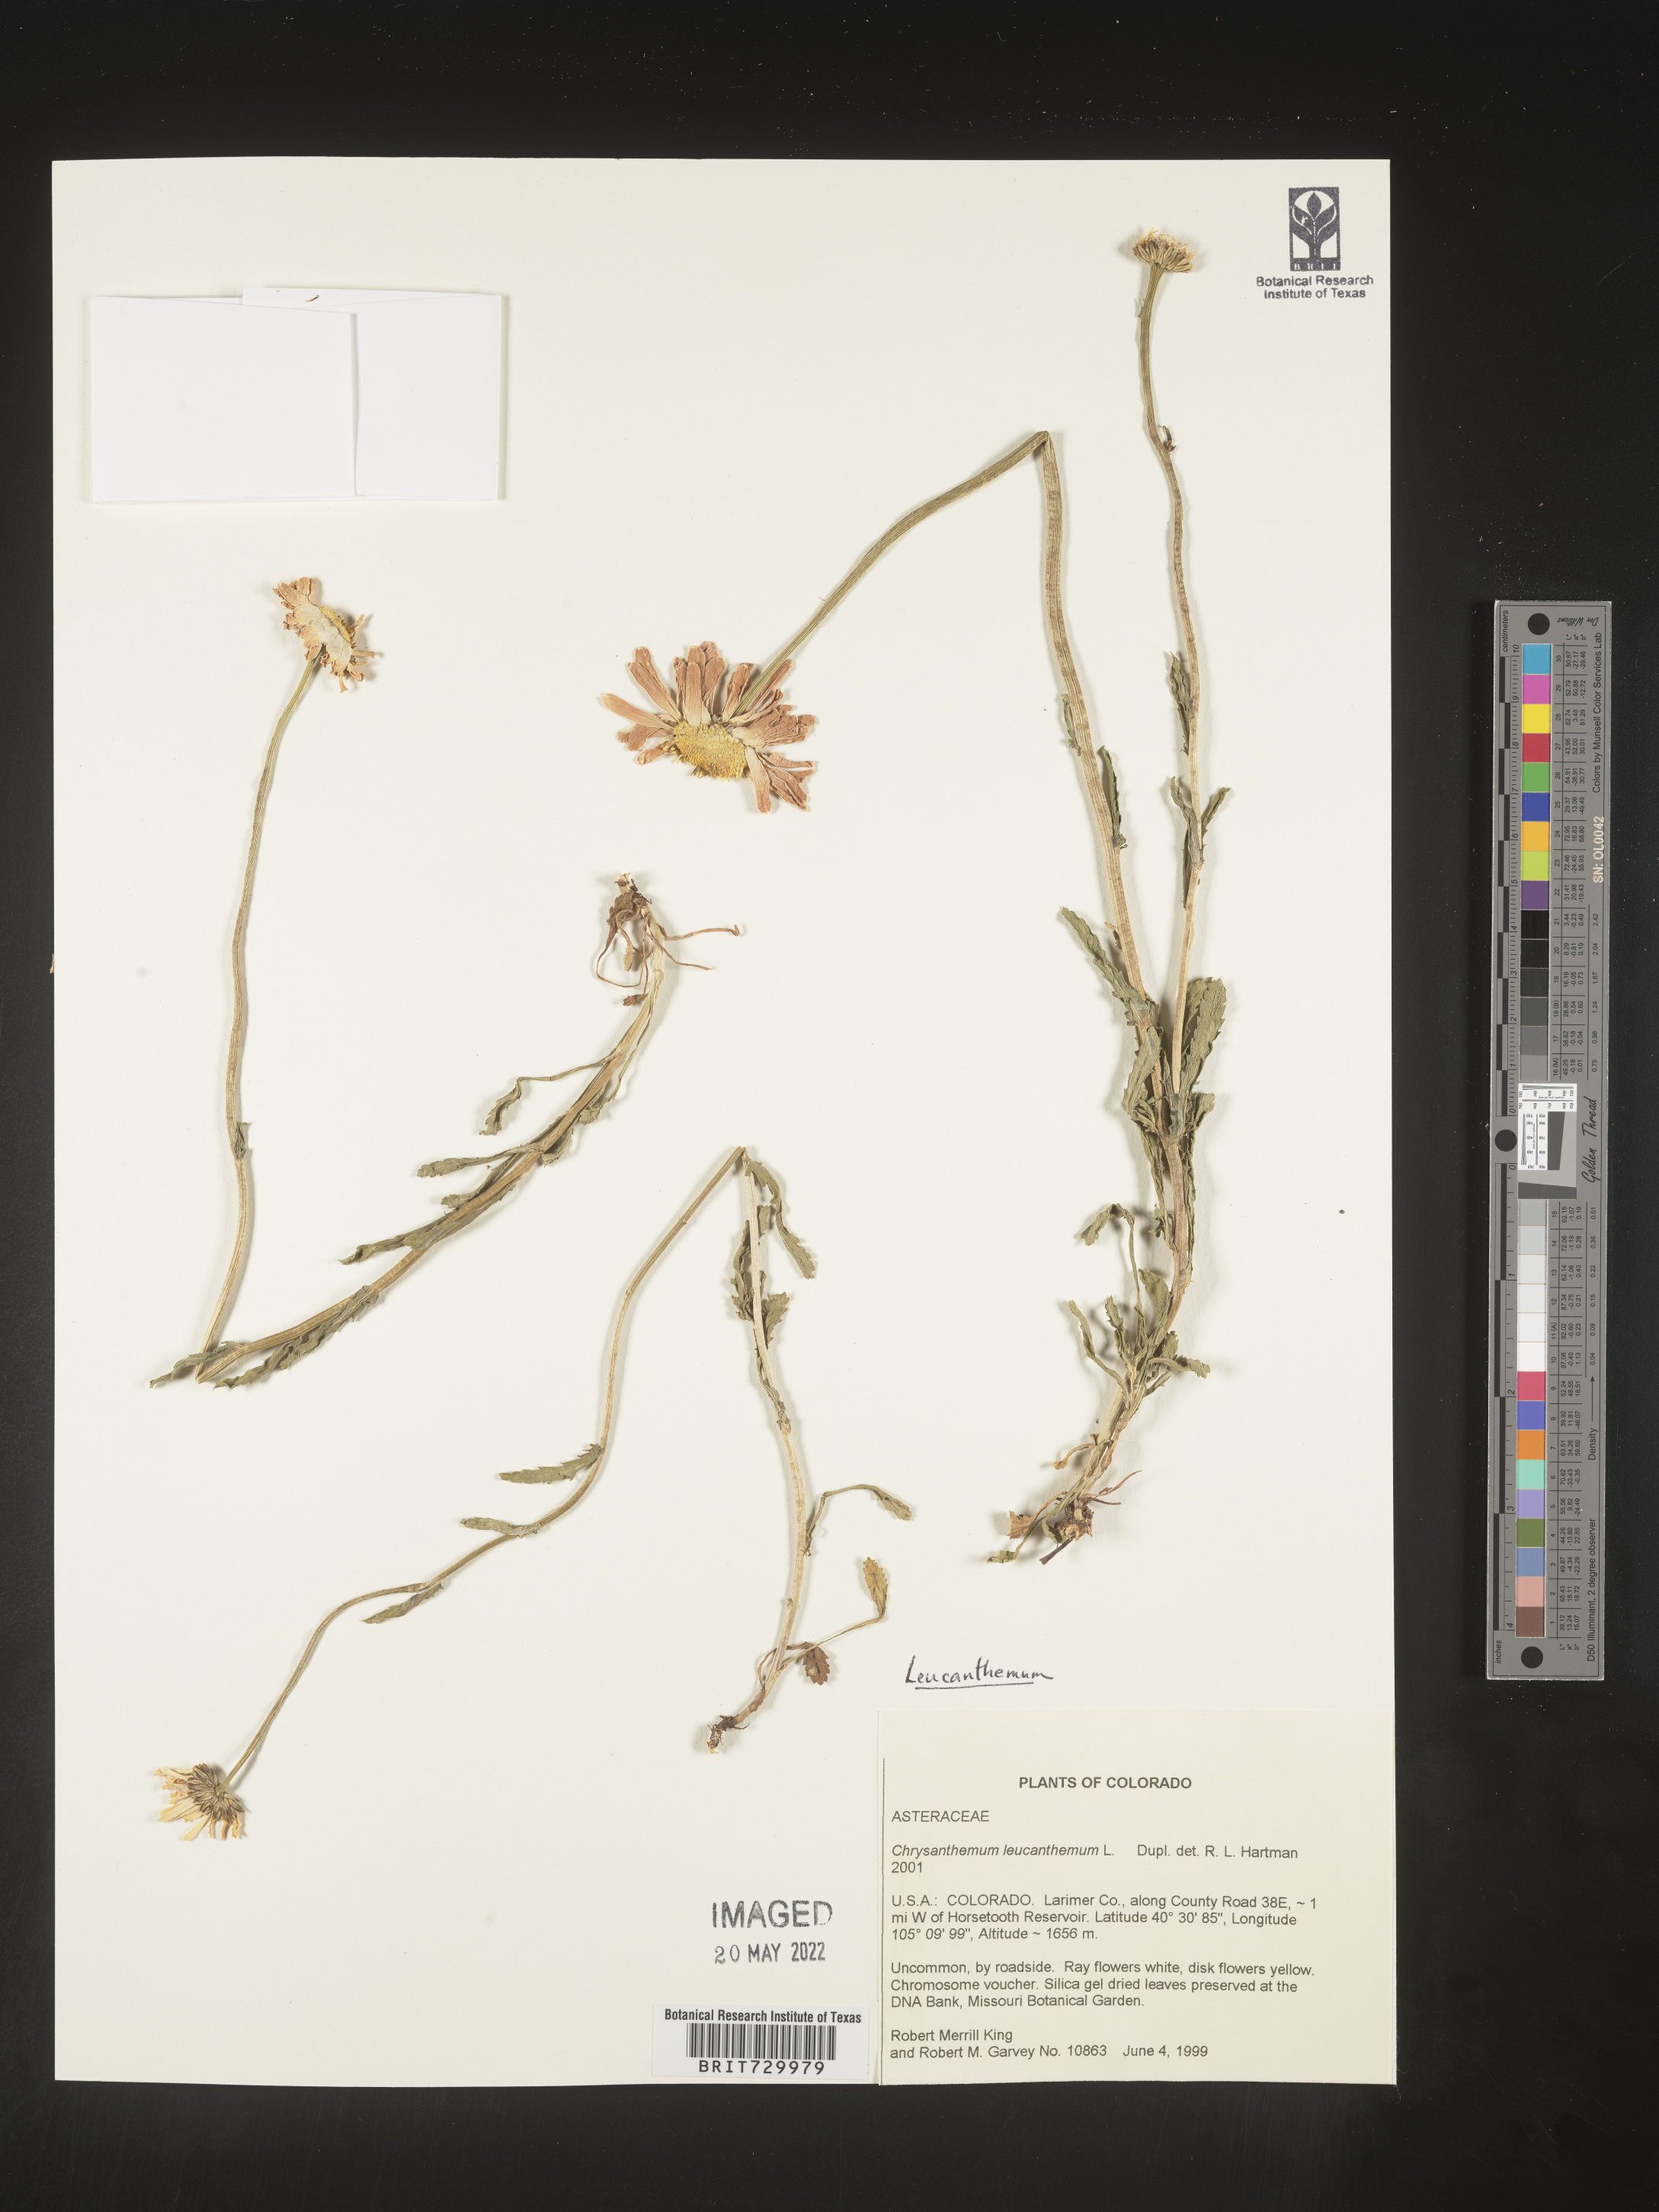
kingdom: Plantae
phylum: Tracheophyta
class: Magnoliopsida
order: Asterales
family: Asteraceae
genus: Leucanthemum
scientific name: Leucanthemum vulgare
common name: Oxeye daisy
